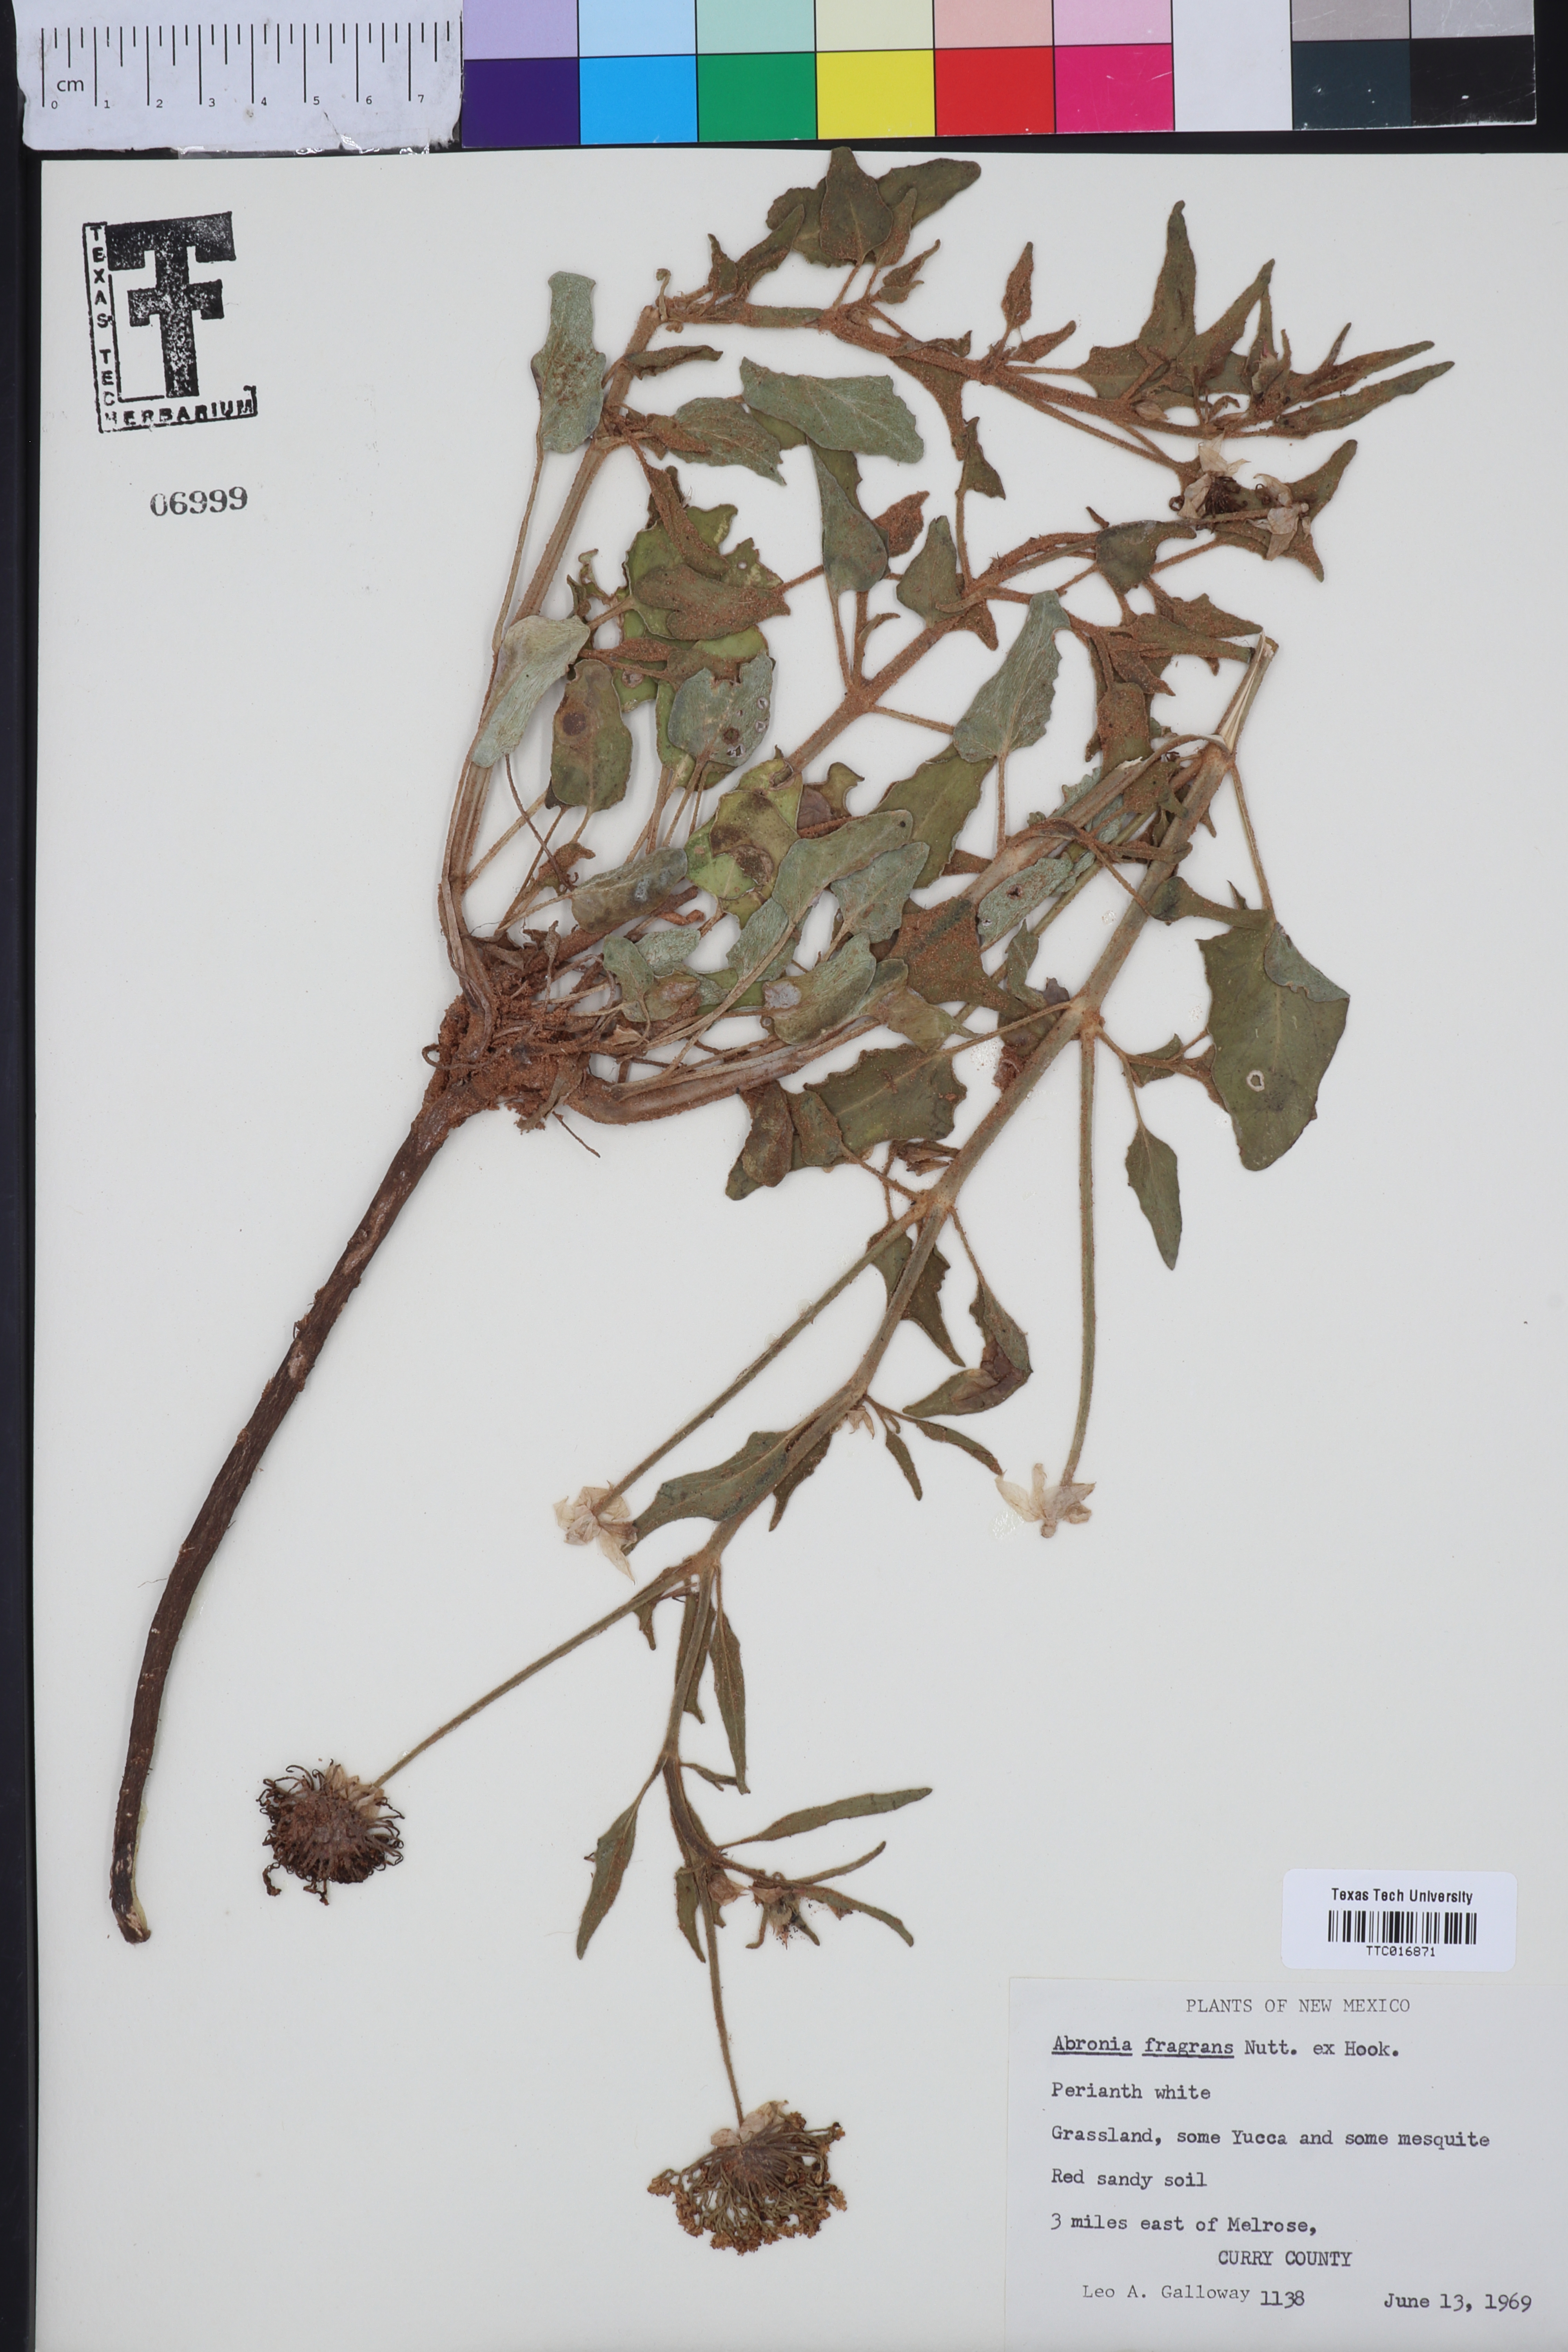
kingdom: Plantae
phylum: Tracheophyta
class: Magnoliopsida
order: Caryophyllales
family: Nyctaginaceae
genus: Abronia
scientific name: Abronia fragrans
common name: Fragrant sand-verbena
